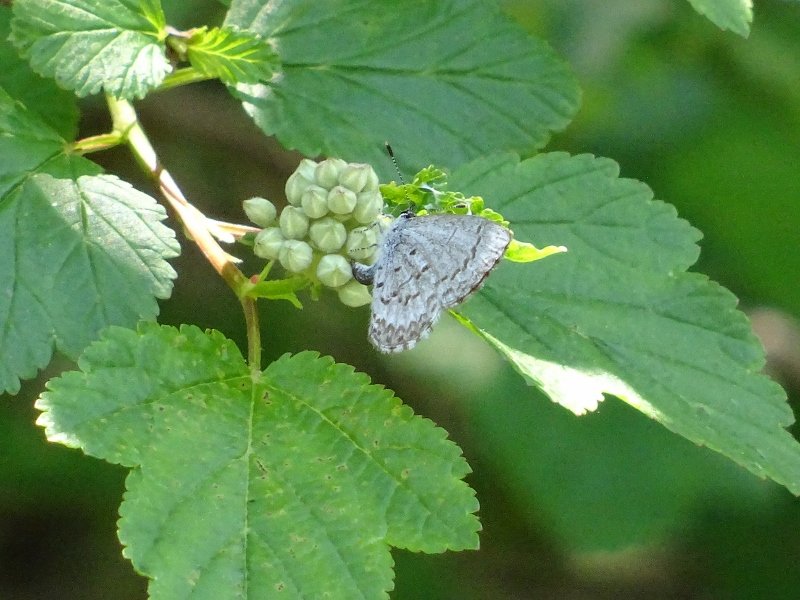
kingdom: Animalia
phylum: Arthropoda
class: Insecta
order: Lepidoptera
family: Lycaenidae
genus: Celastrina
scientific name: Celastrina
